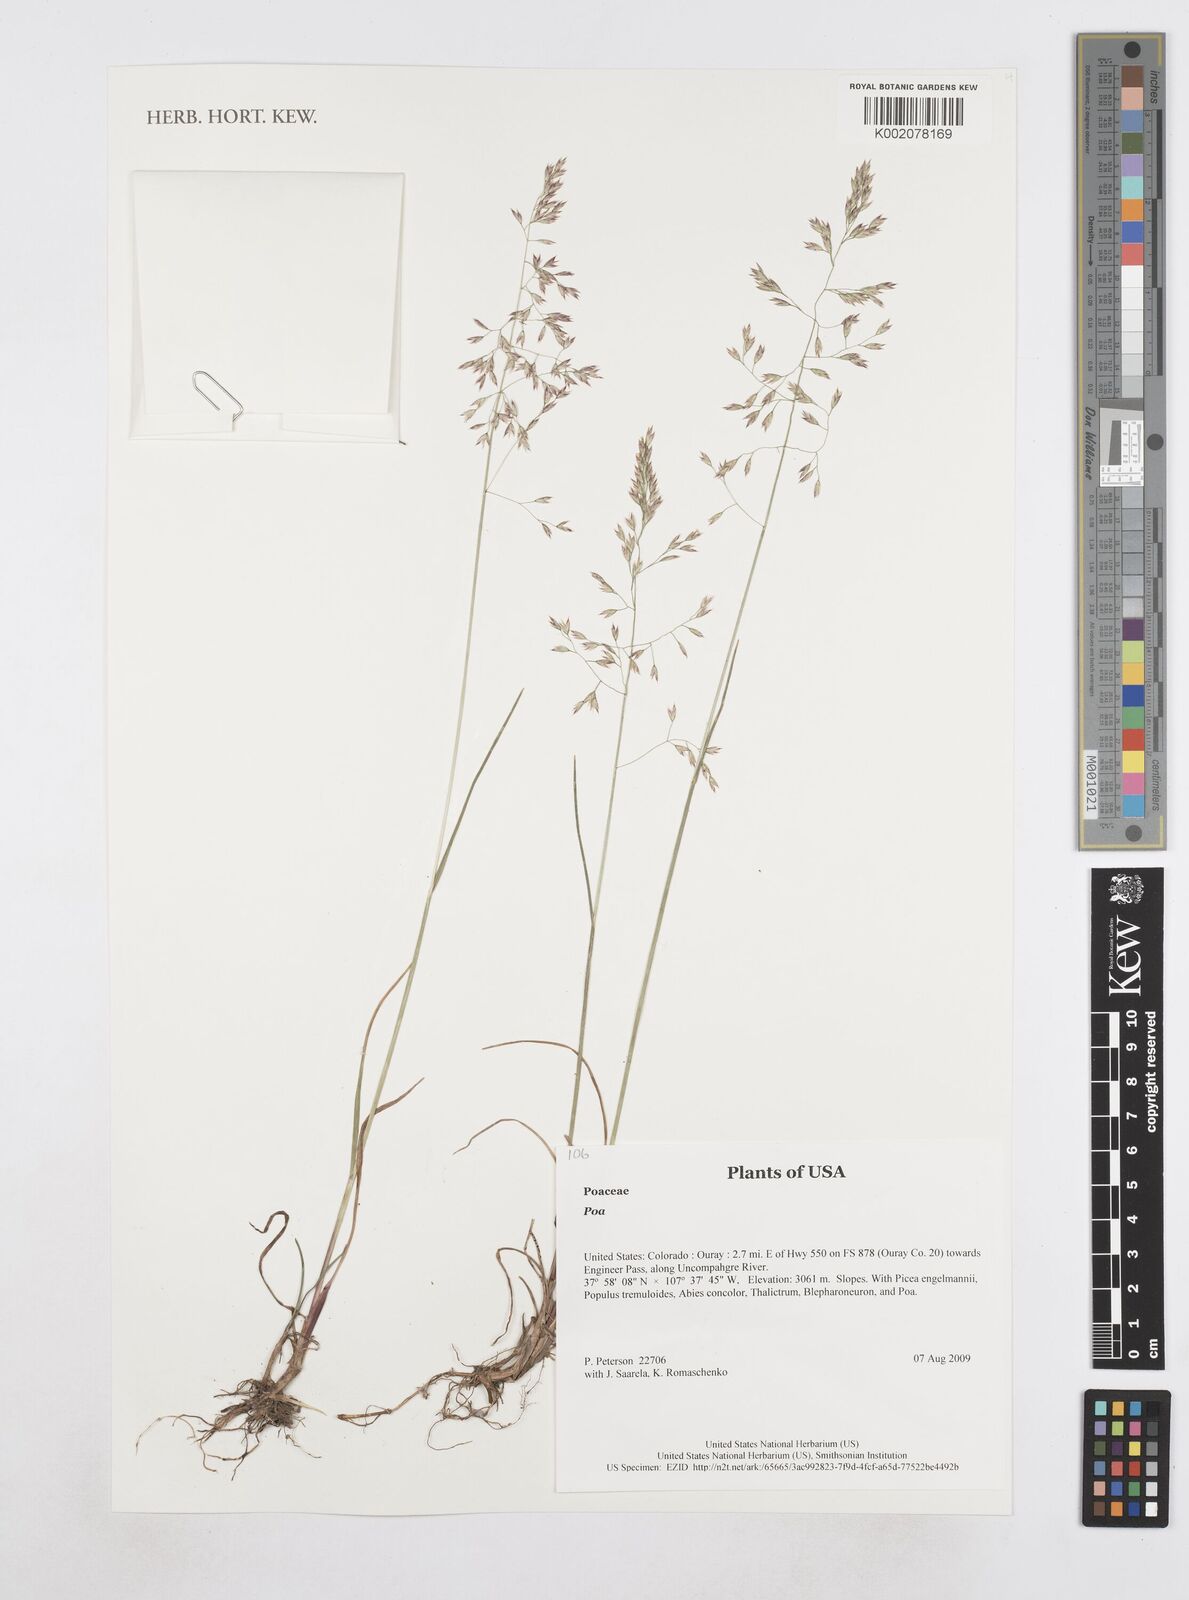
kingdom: Plantae
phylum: Tracheophyta
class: Liliopsida
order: Poales
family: Poaceae
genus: Poa
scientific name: Poa
